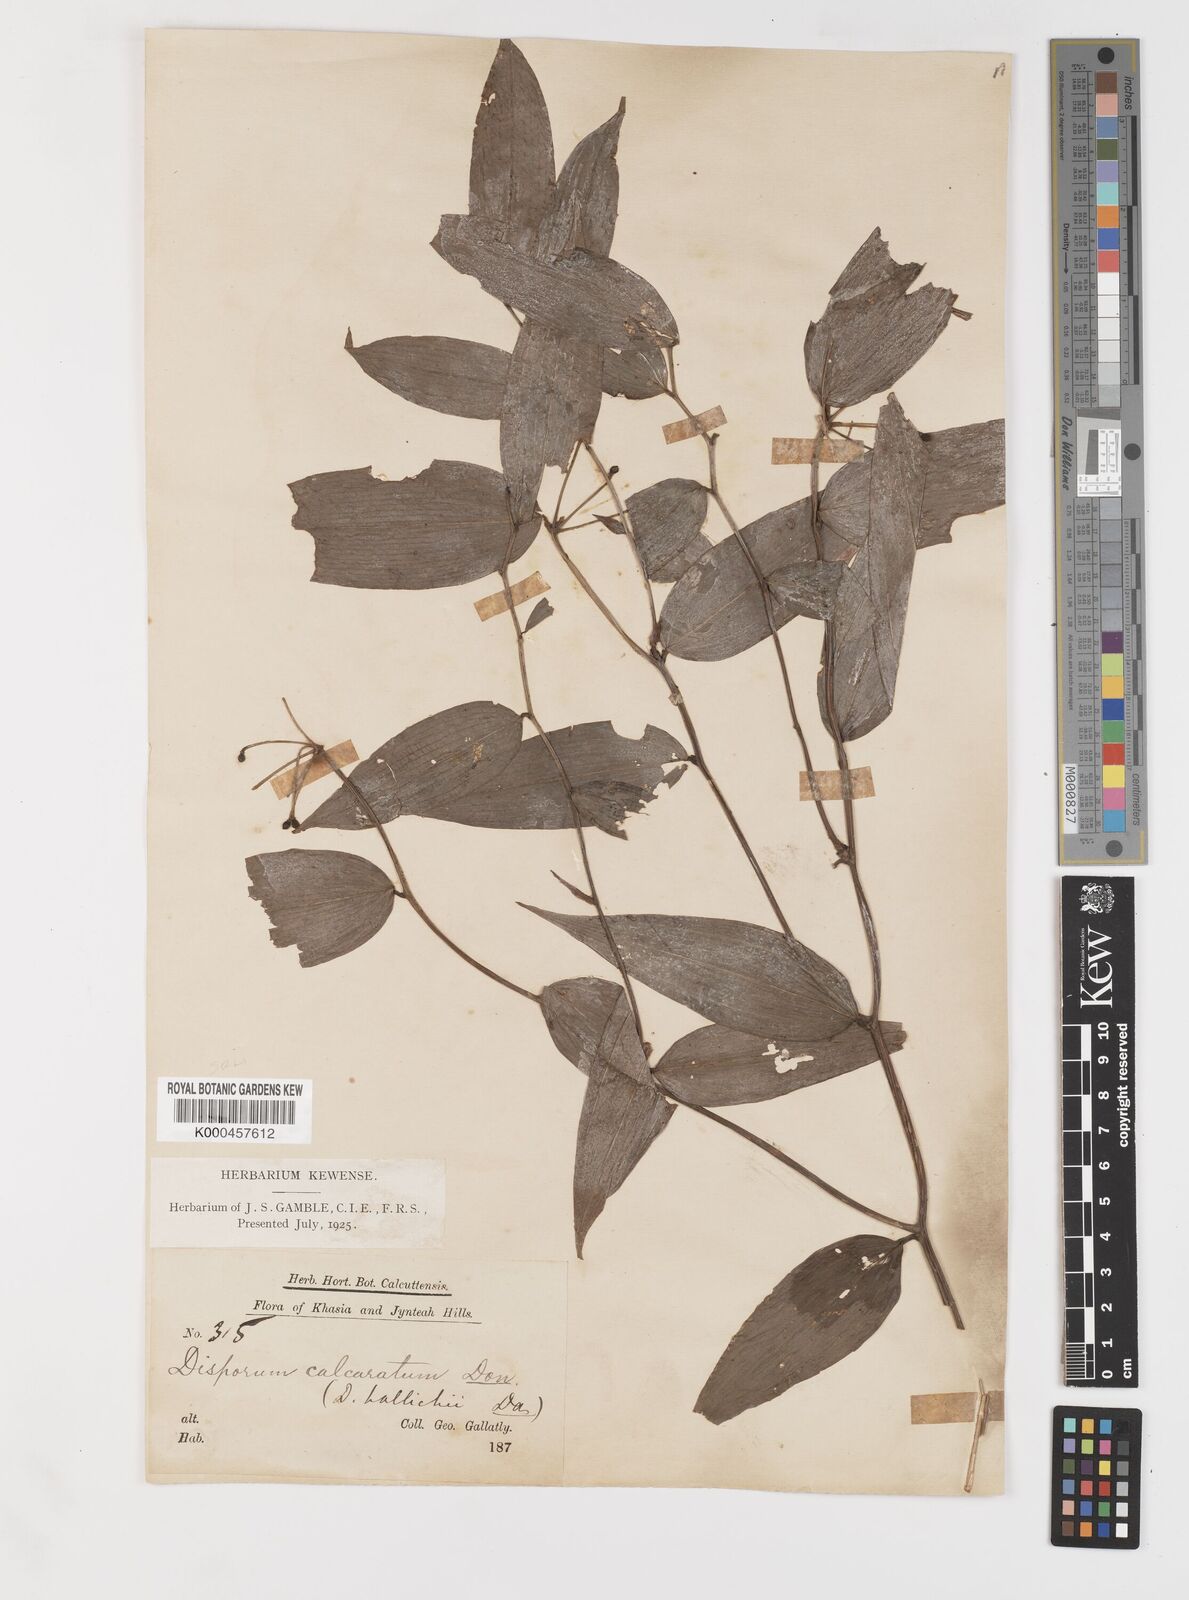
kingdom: Plantae
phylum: Tracheophyta
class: Liliopsida
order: Liliales
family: Colchicaceae
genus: Disporum
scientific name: Disporum calcaratum
